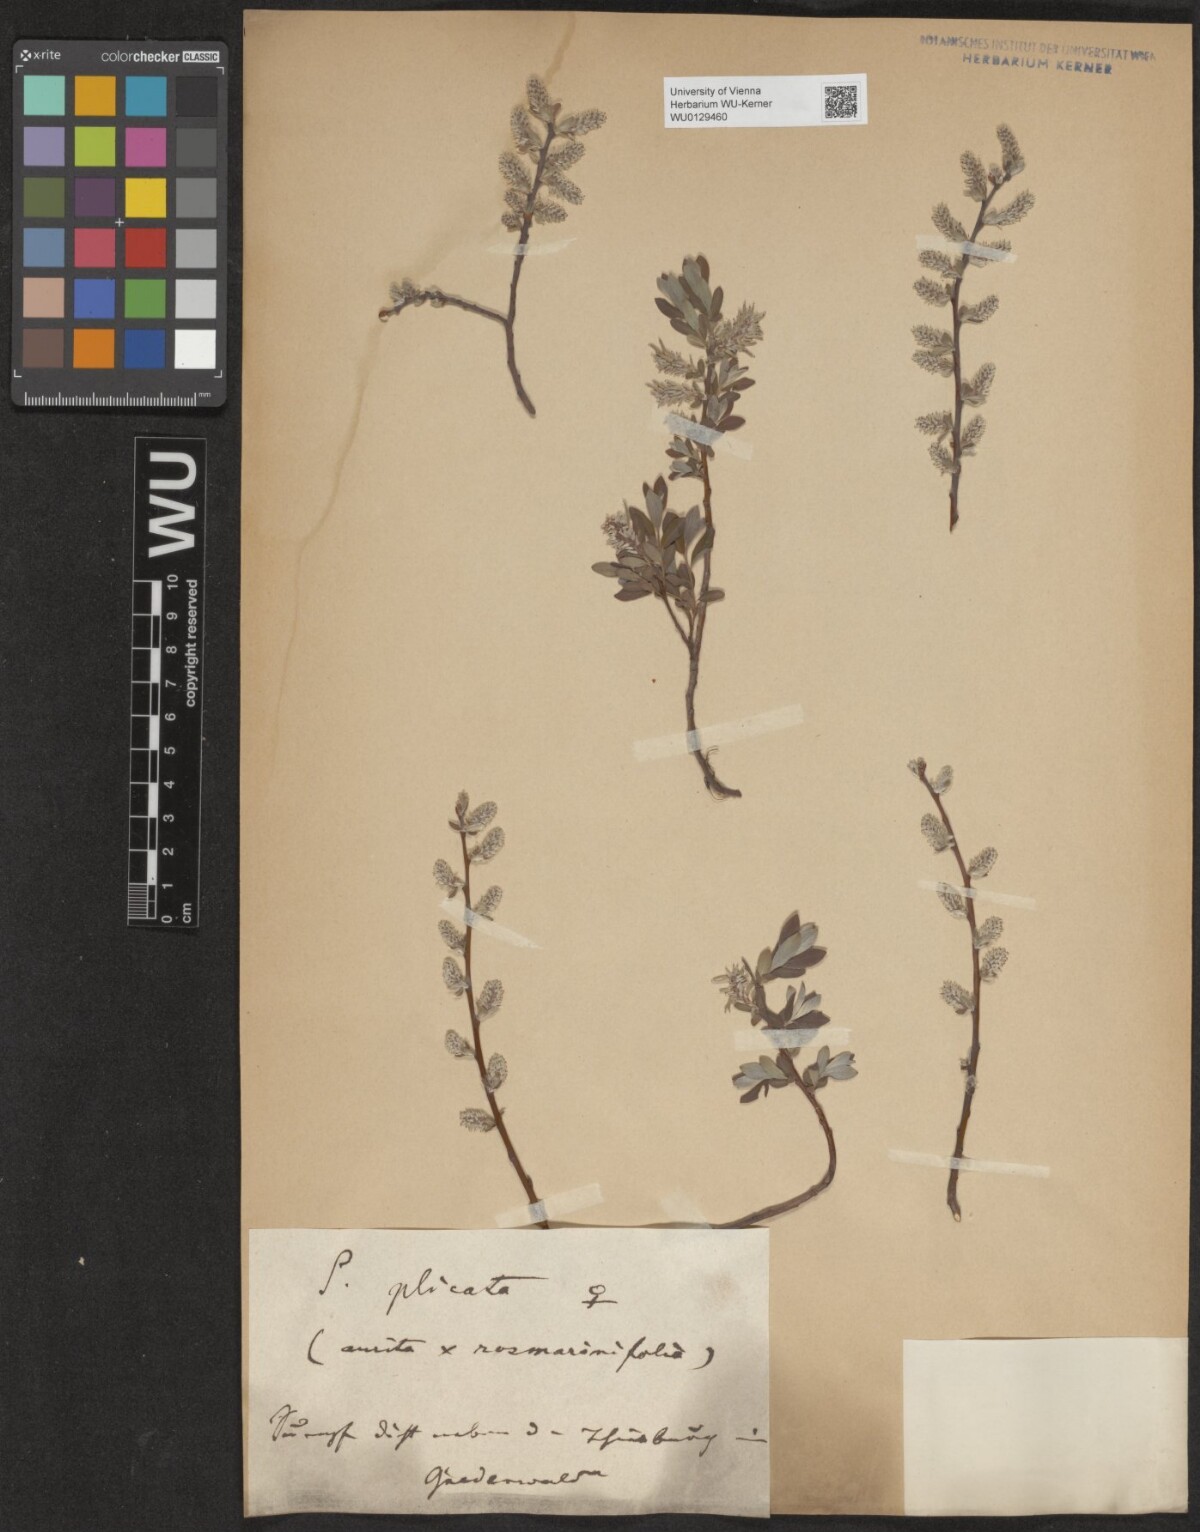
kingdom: Plantae
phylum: Tracheophyta
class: Magnoliopsida
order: Malpighiales
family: Salicaceae
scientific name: Salicaceae
